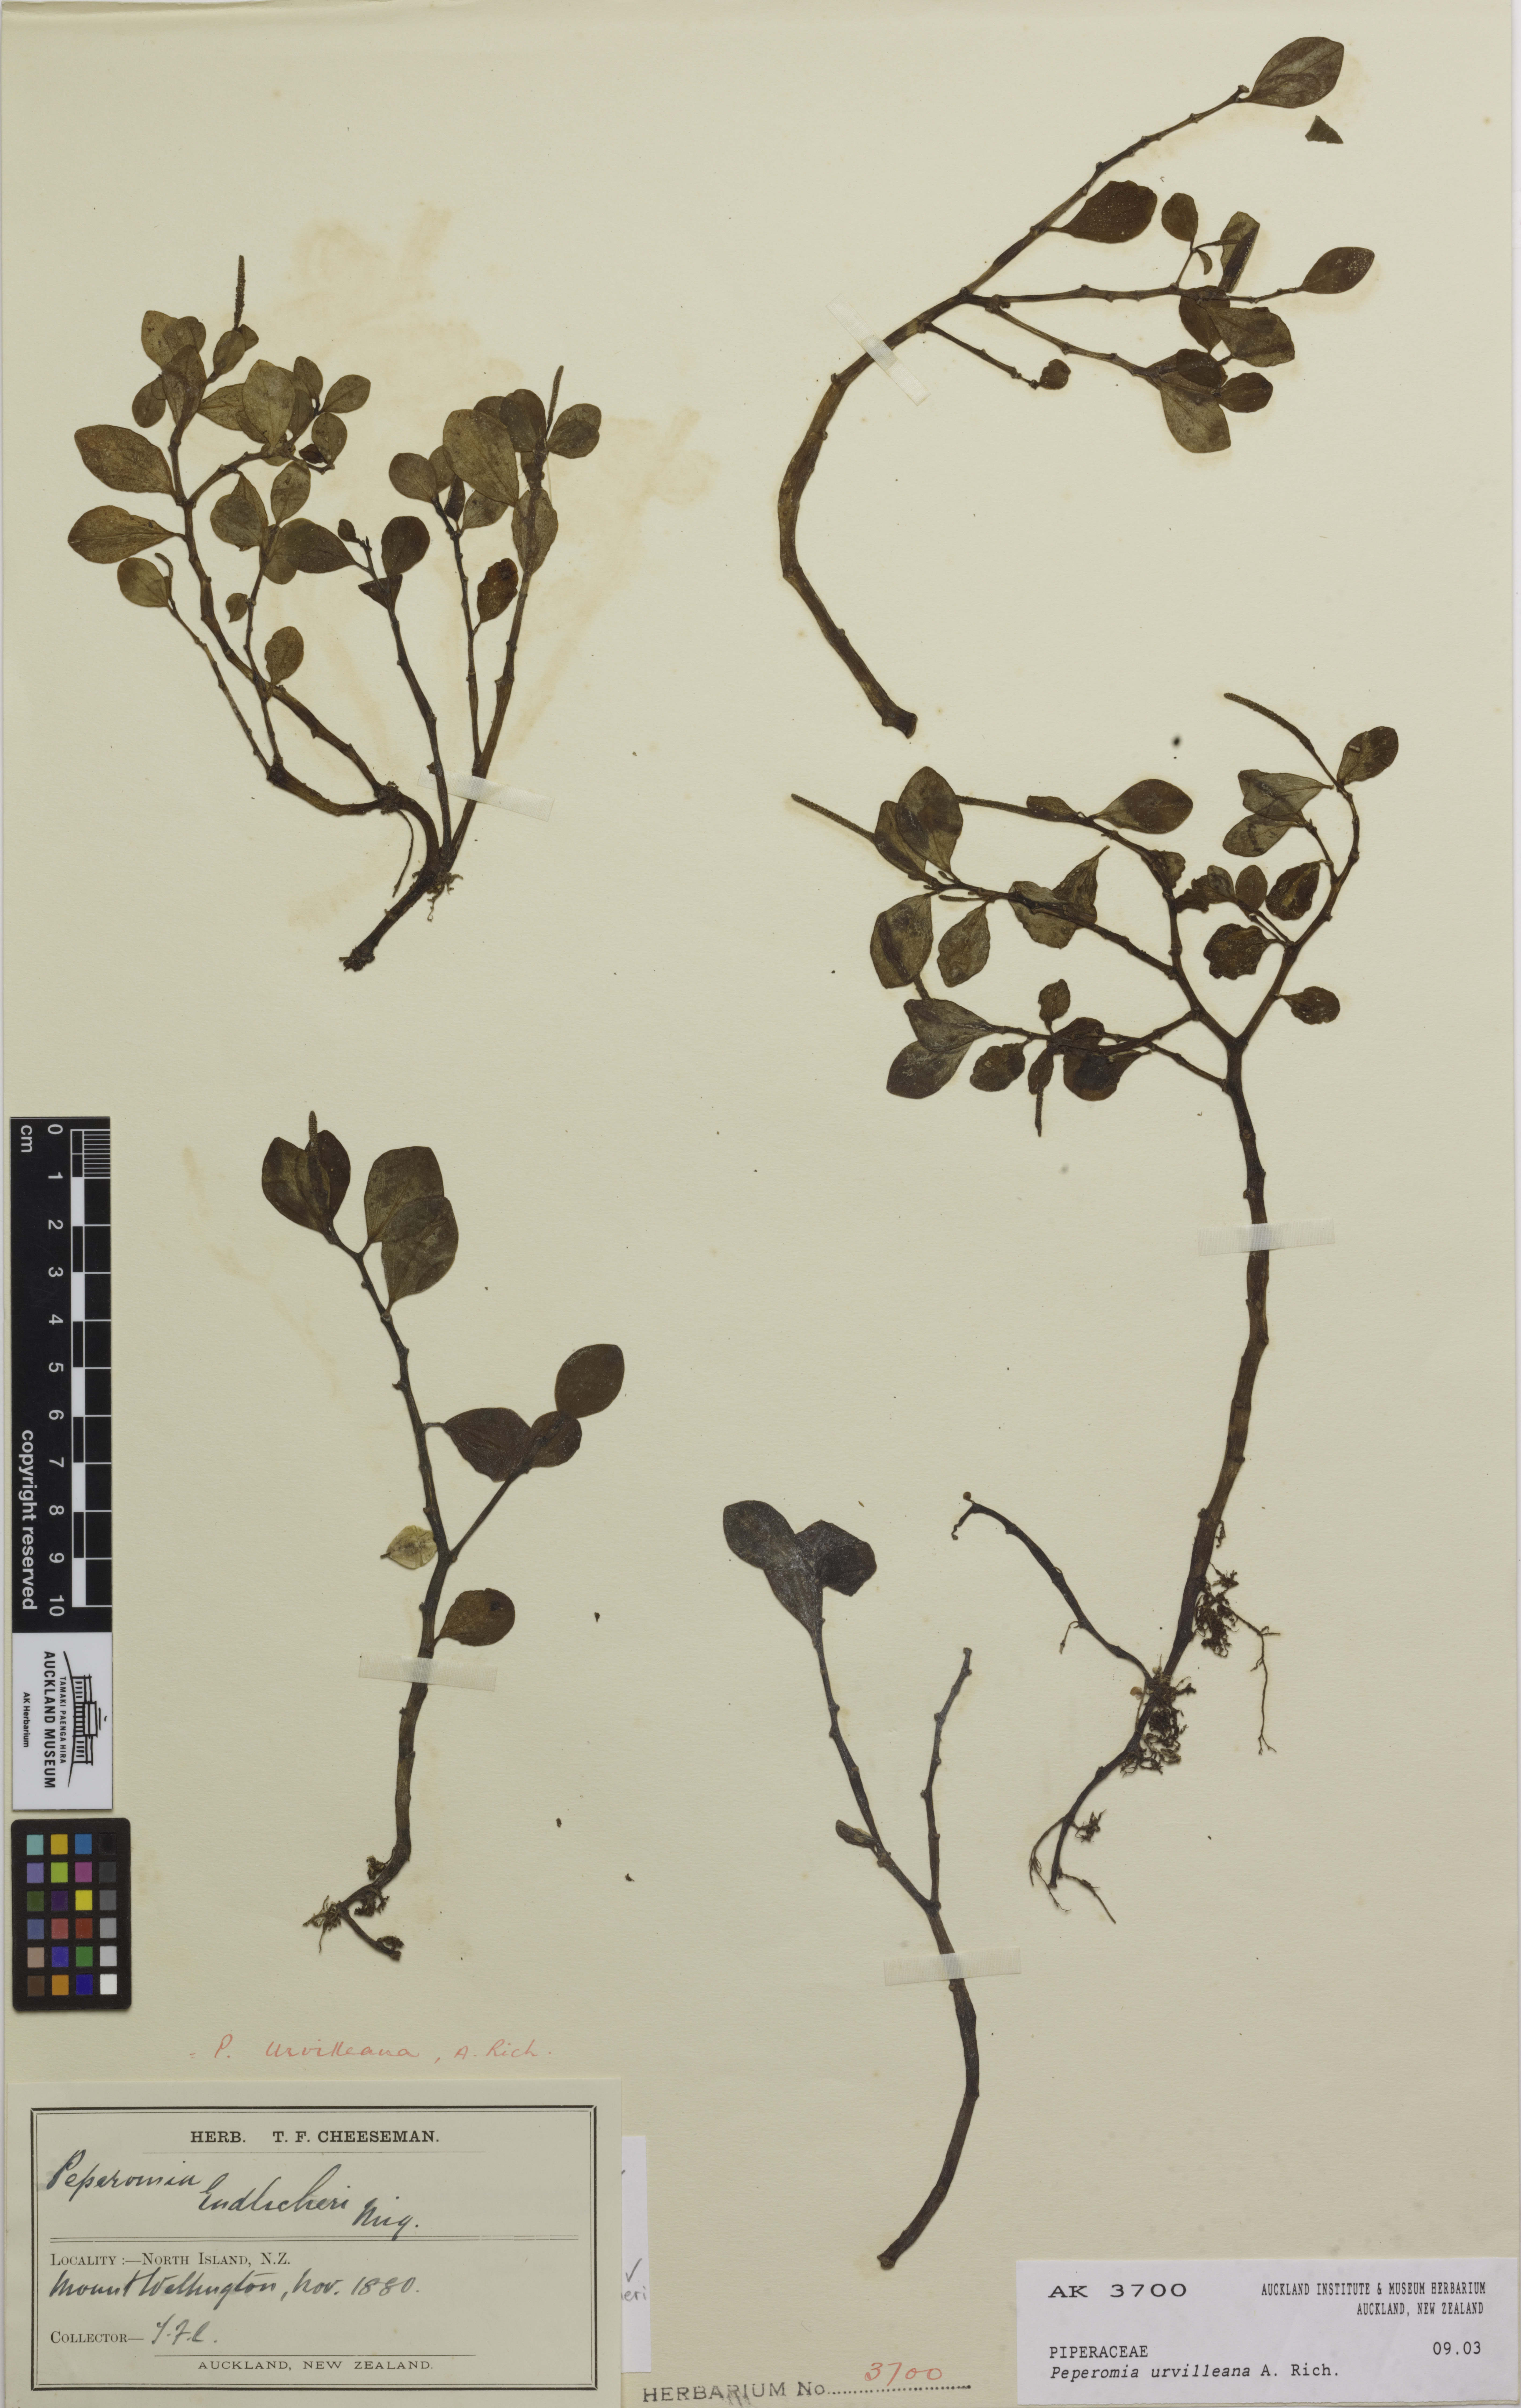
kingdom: Plantae
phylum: Tracheophyta
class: Magnoliopsida
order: Piperales
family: Piperaceae
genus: Peperomia
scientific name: Peperomia urvilleana
